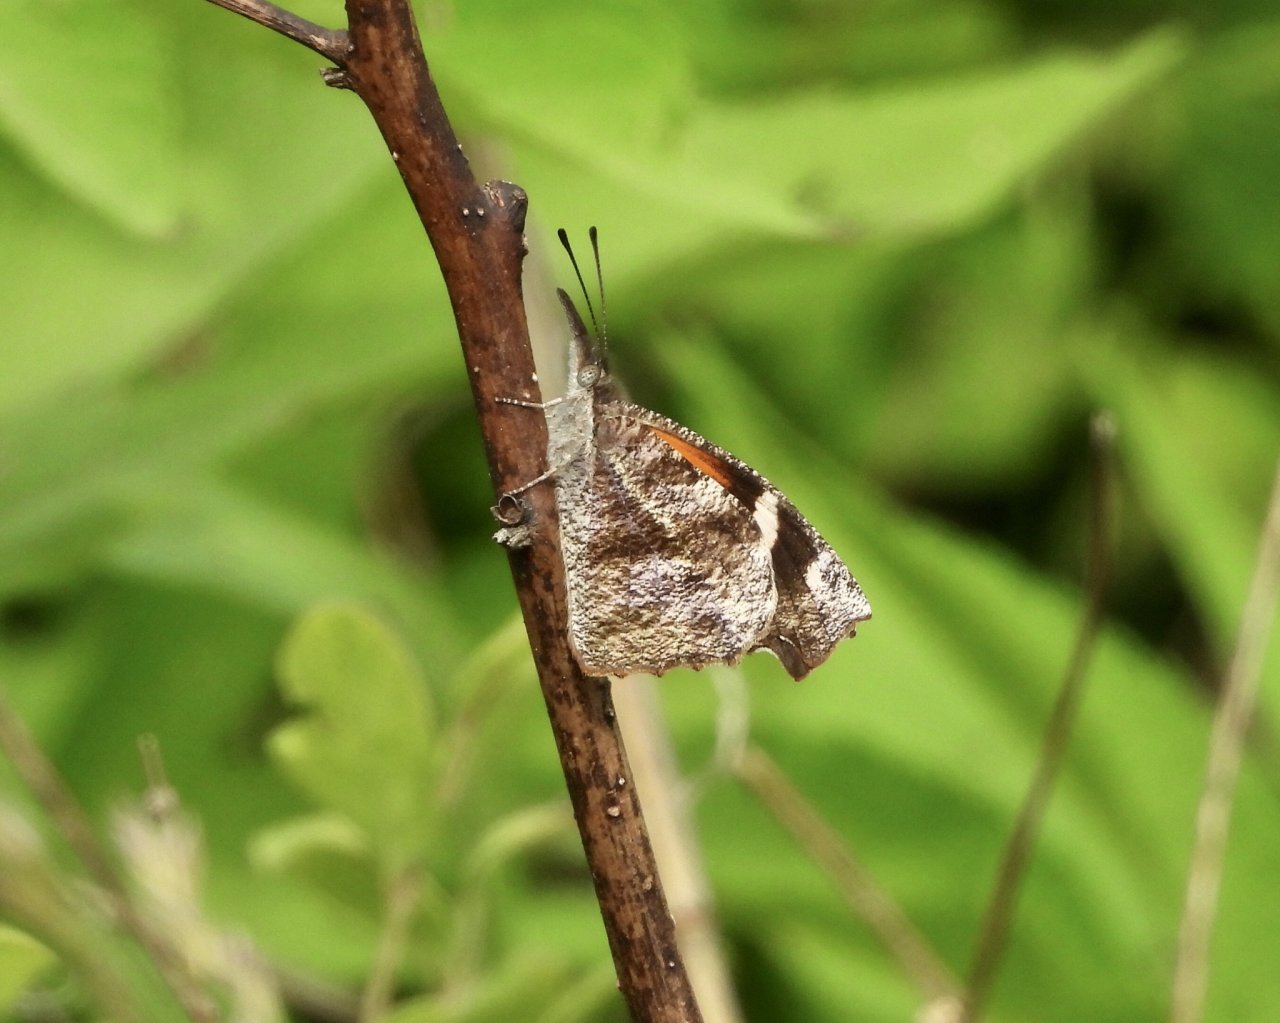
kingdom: Animalia
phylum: Arthropoda
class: Insecta
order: Lepidoptera
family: Nymphalidae
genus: Libytheana
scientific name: Libytheana carinenta
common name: American Snout
